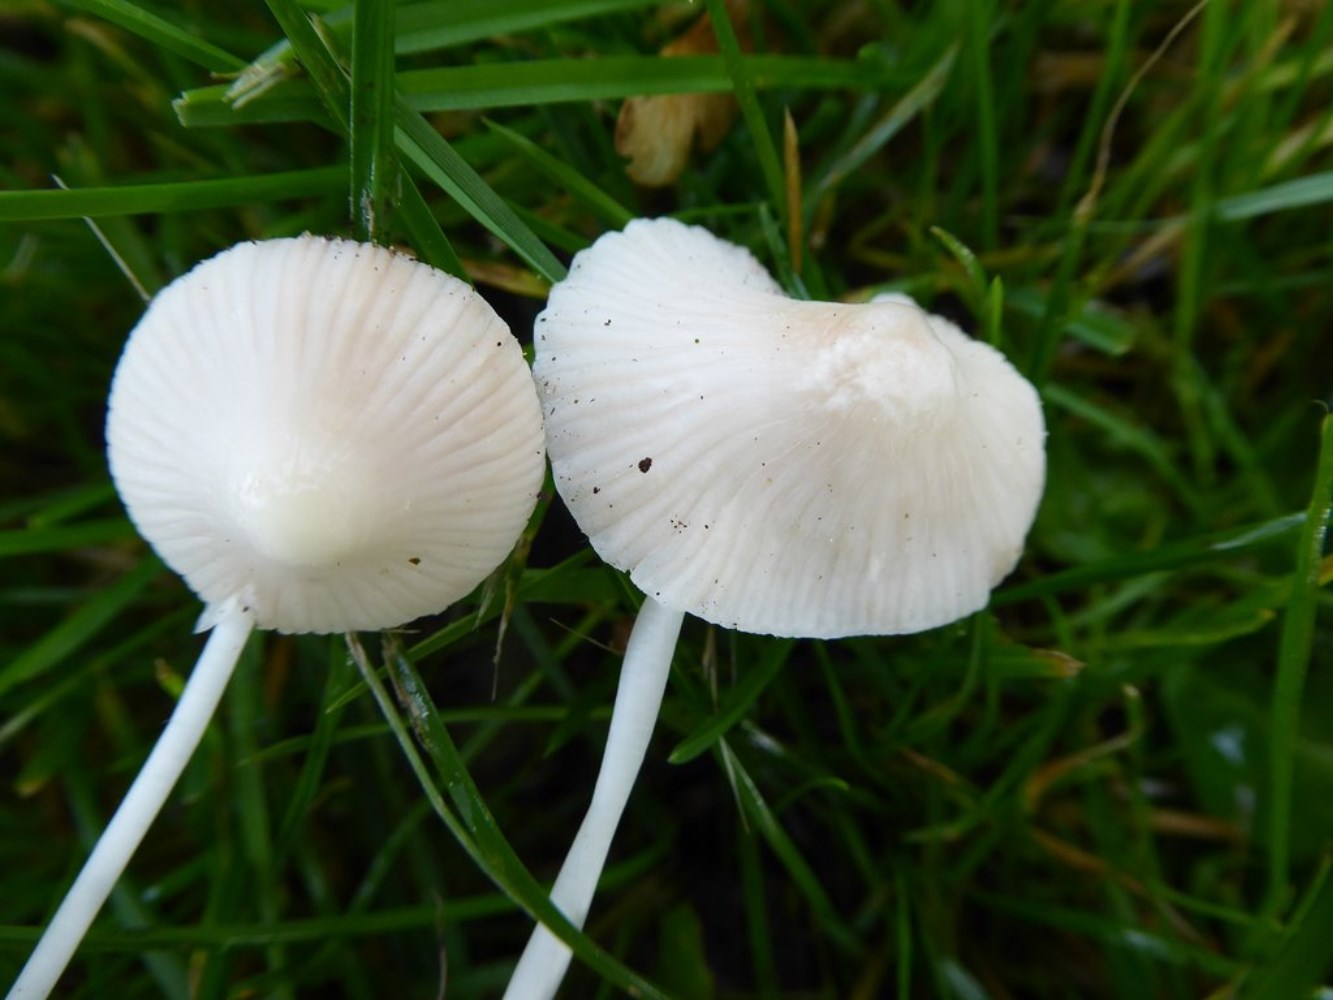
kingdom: Fungi
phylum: Basidiomycota
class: Agaricomycetes
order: Agaricales
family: Mycenaceae
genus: Mycena
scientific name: Mycena
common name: huesvamp
